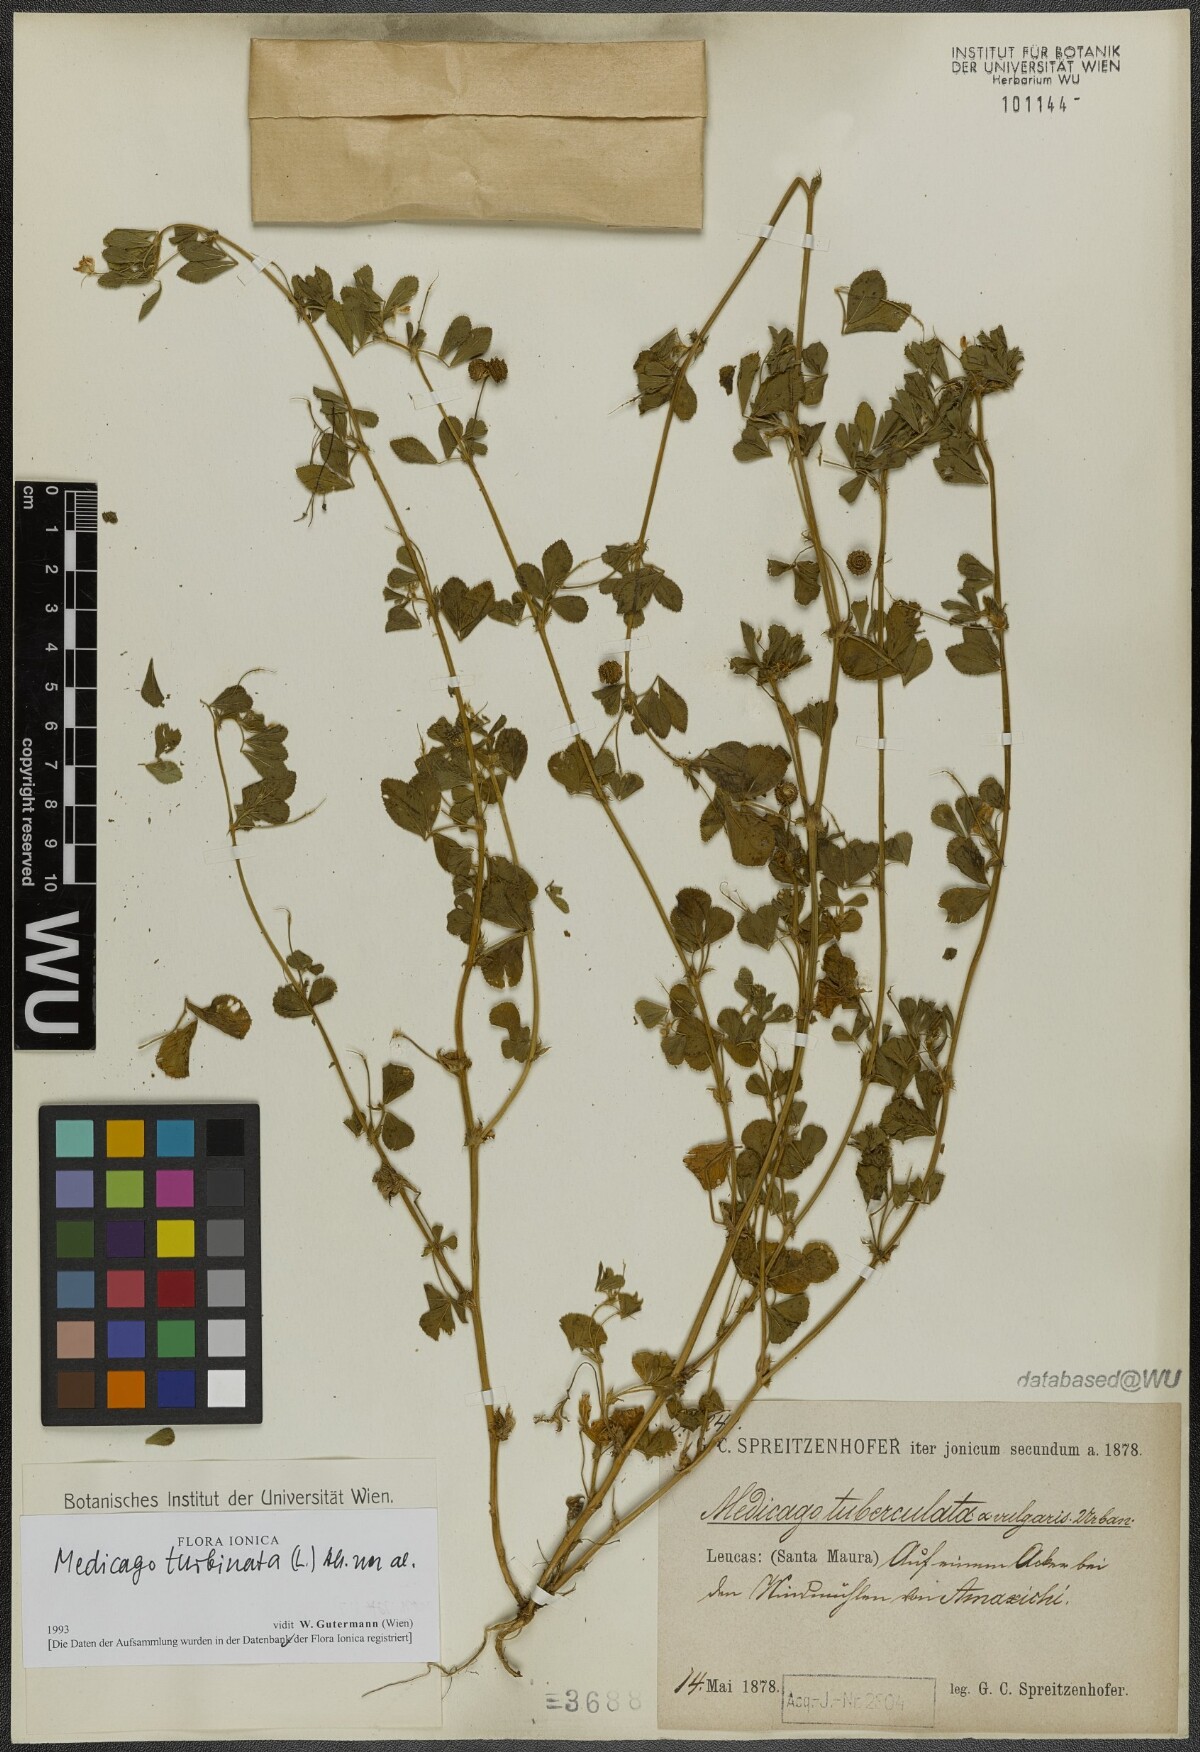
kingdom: Plantae
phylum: Tracheophyta
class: Magnoliopsida
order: Fabales
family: Fabaceae
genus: Medicago
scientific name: Medicago turbinata
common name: Southern medick
